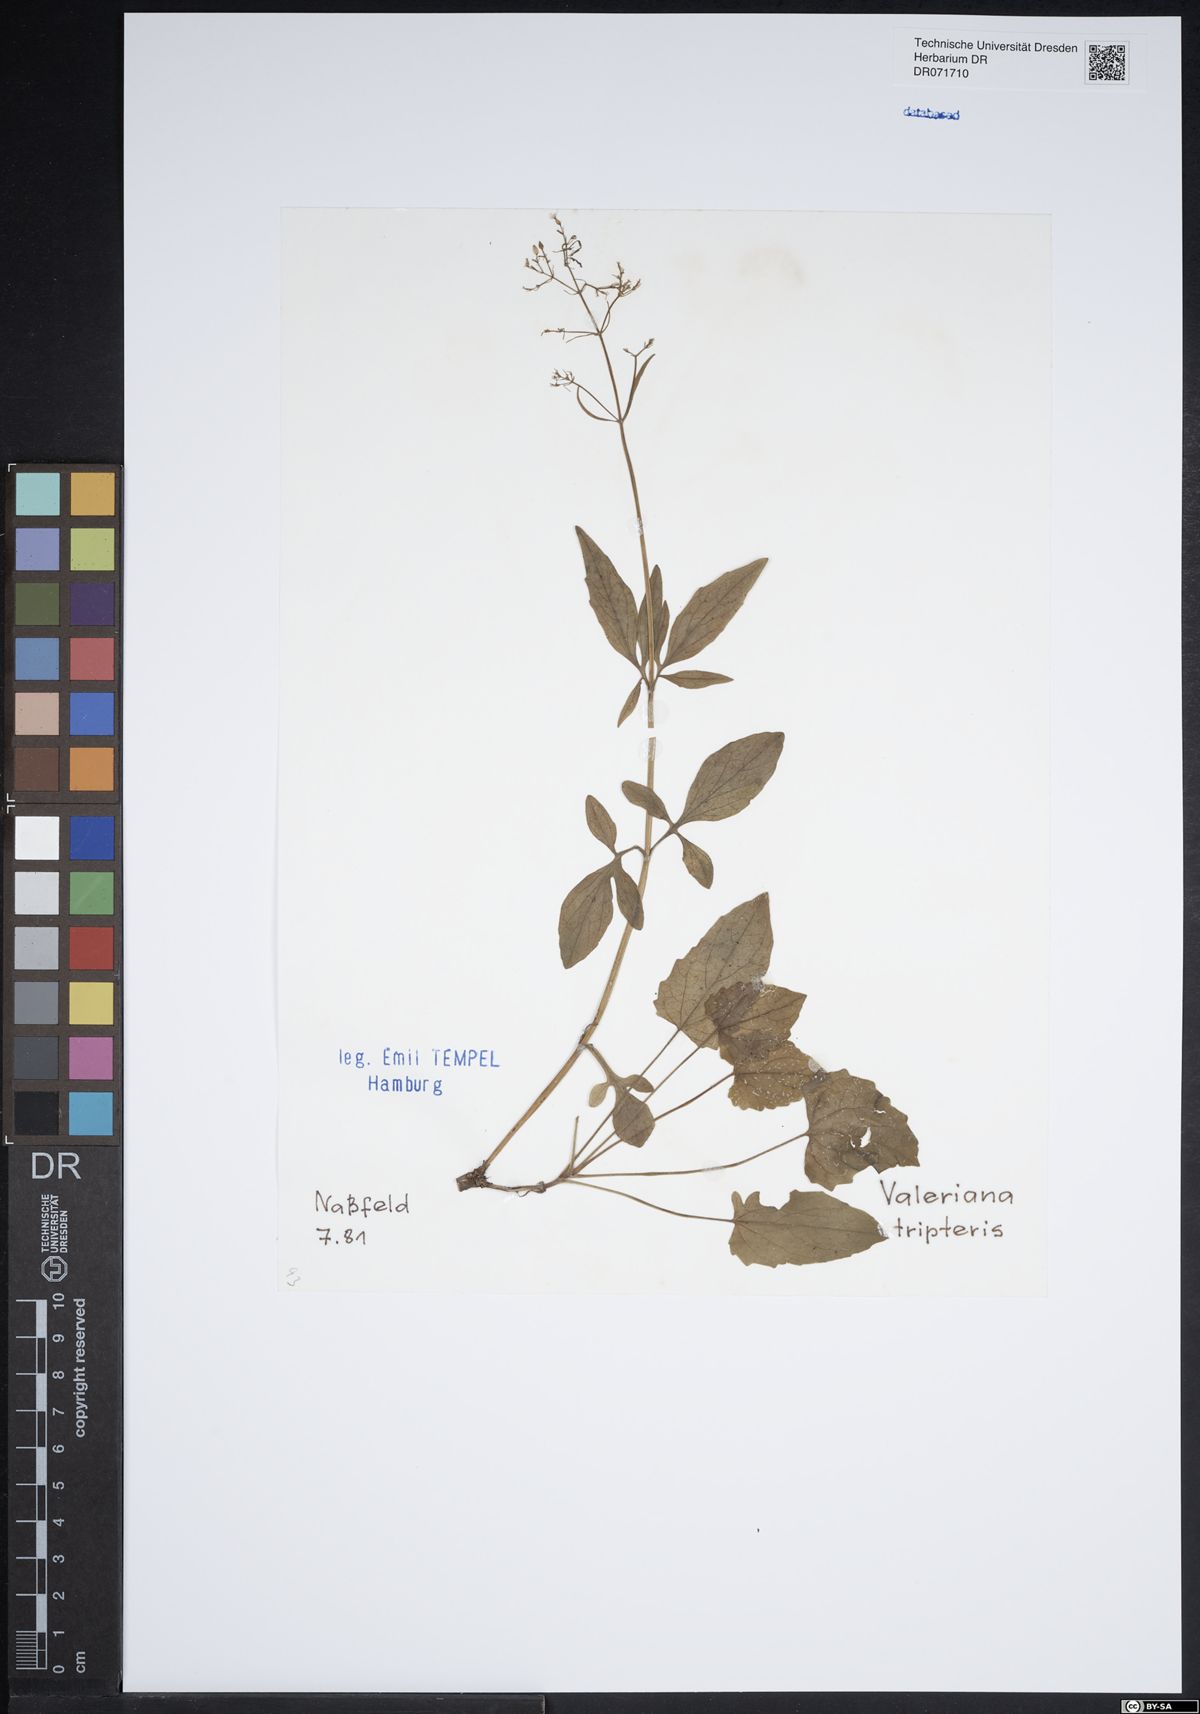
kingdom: Plantae
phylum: Tracheophyta
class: Magnoliopsida
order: Dipsacales
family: Caprifoliaceae
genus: Valeriana
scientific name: Valeriana tripteris
